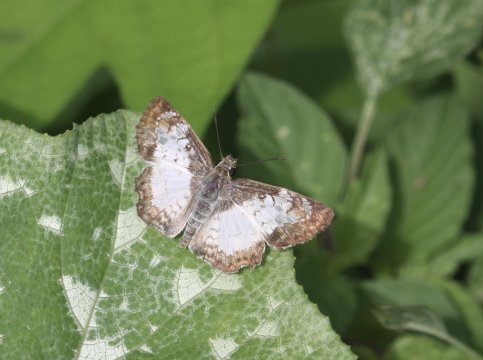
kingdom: Animalia
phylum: Arthropoda
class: Insecta
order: Lepidoptera
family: Hesperiidae
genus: Antigonus
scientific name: Antigonus emorsa
